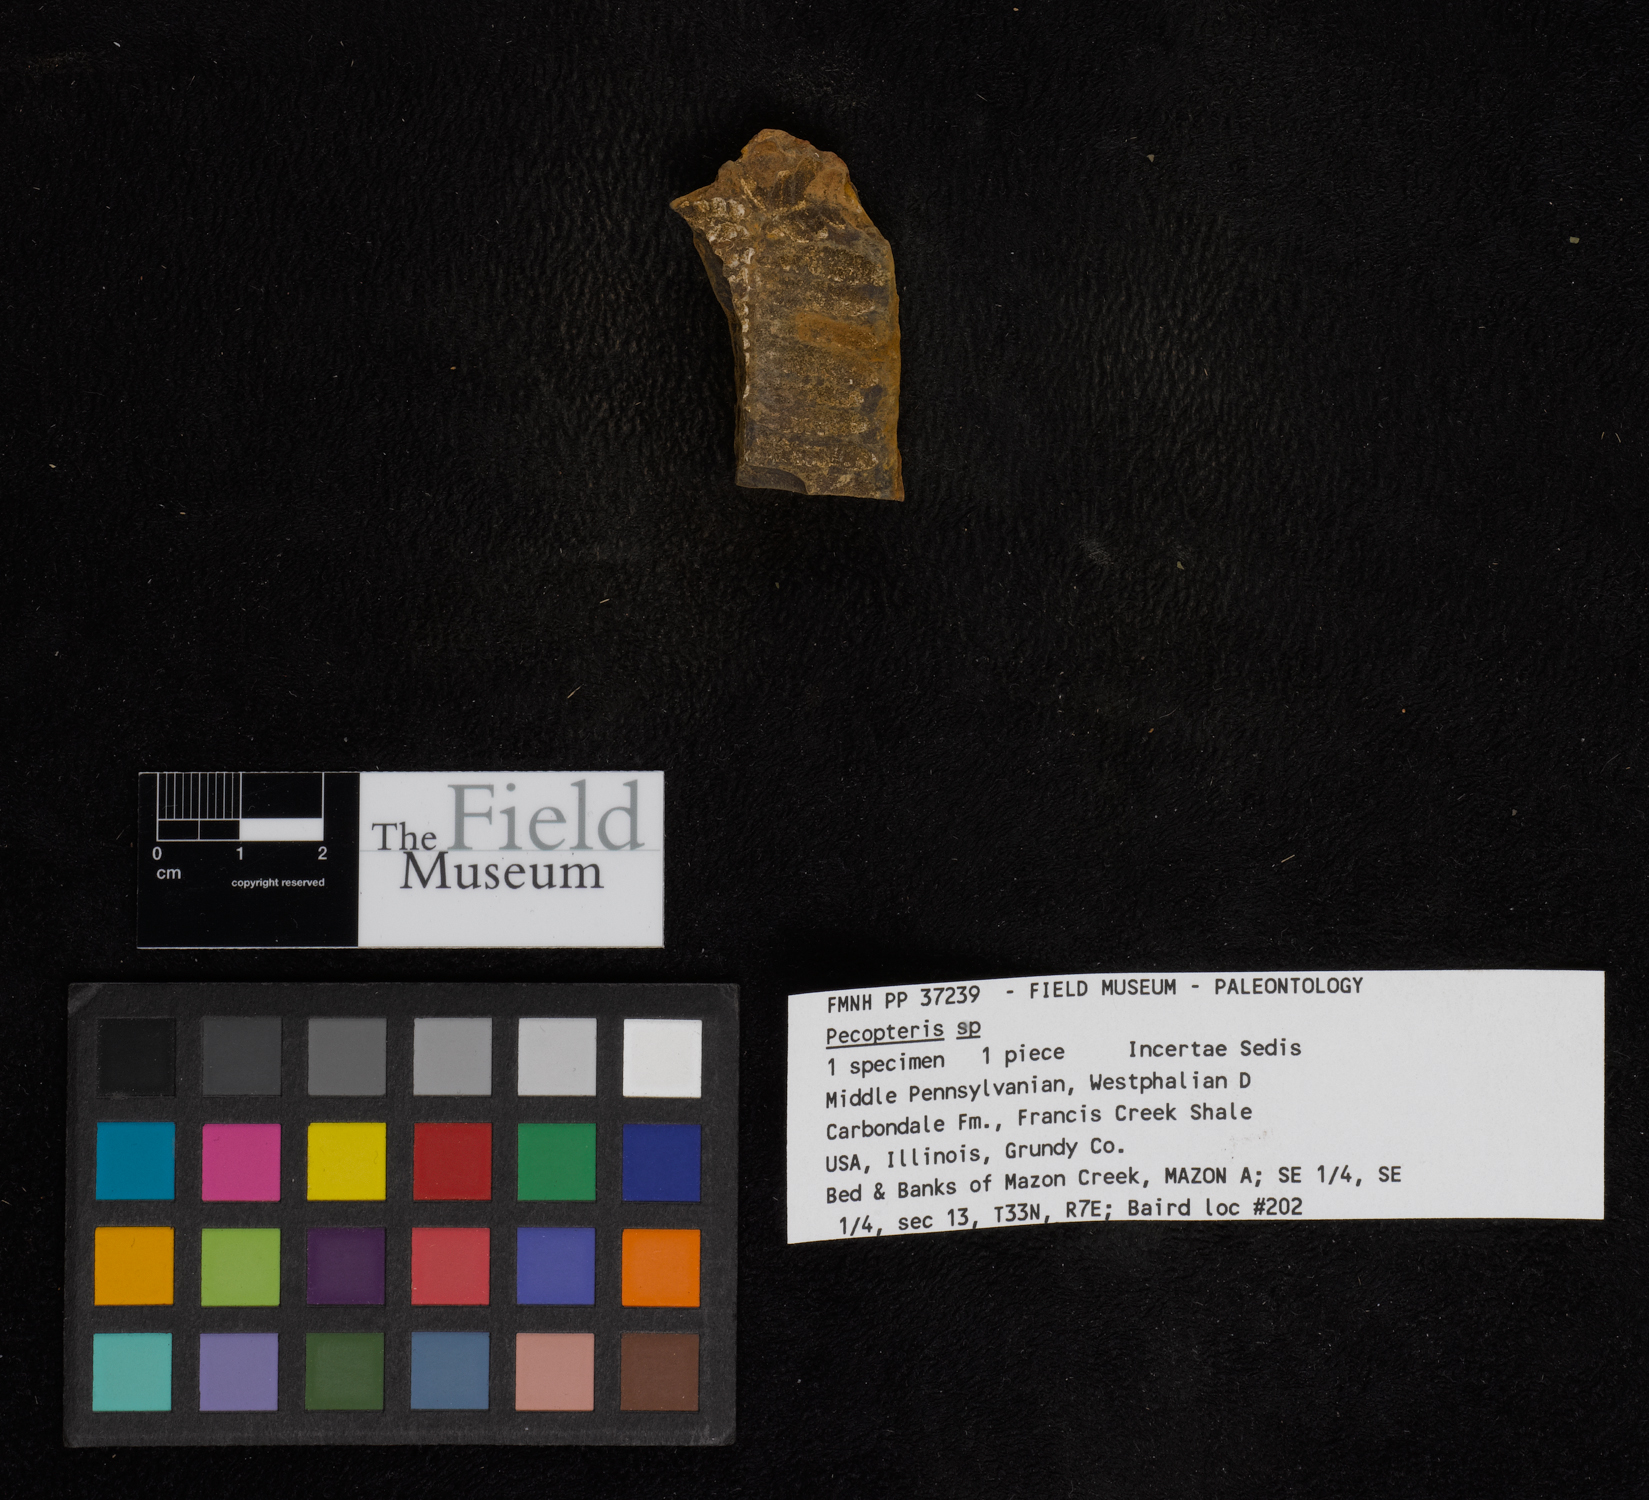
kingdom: Plantae
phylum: Tracheophyta
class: Polypodiopsida
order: Marattiales
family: Asterothecaceae
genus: Pecopteris
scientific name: Pecopteris
